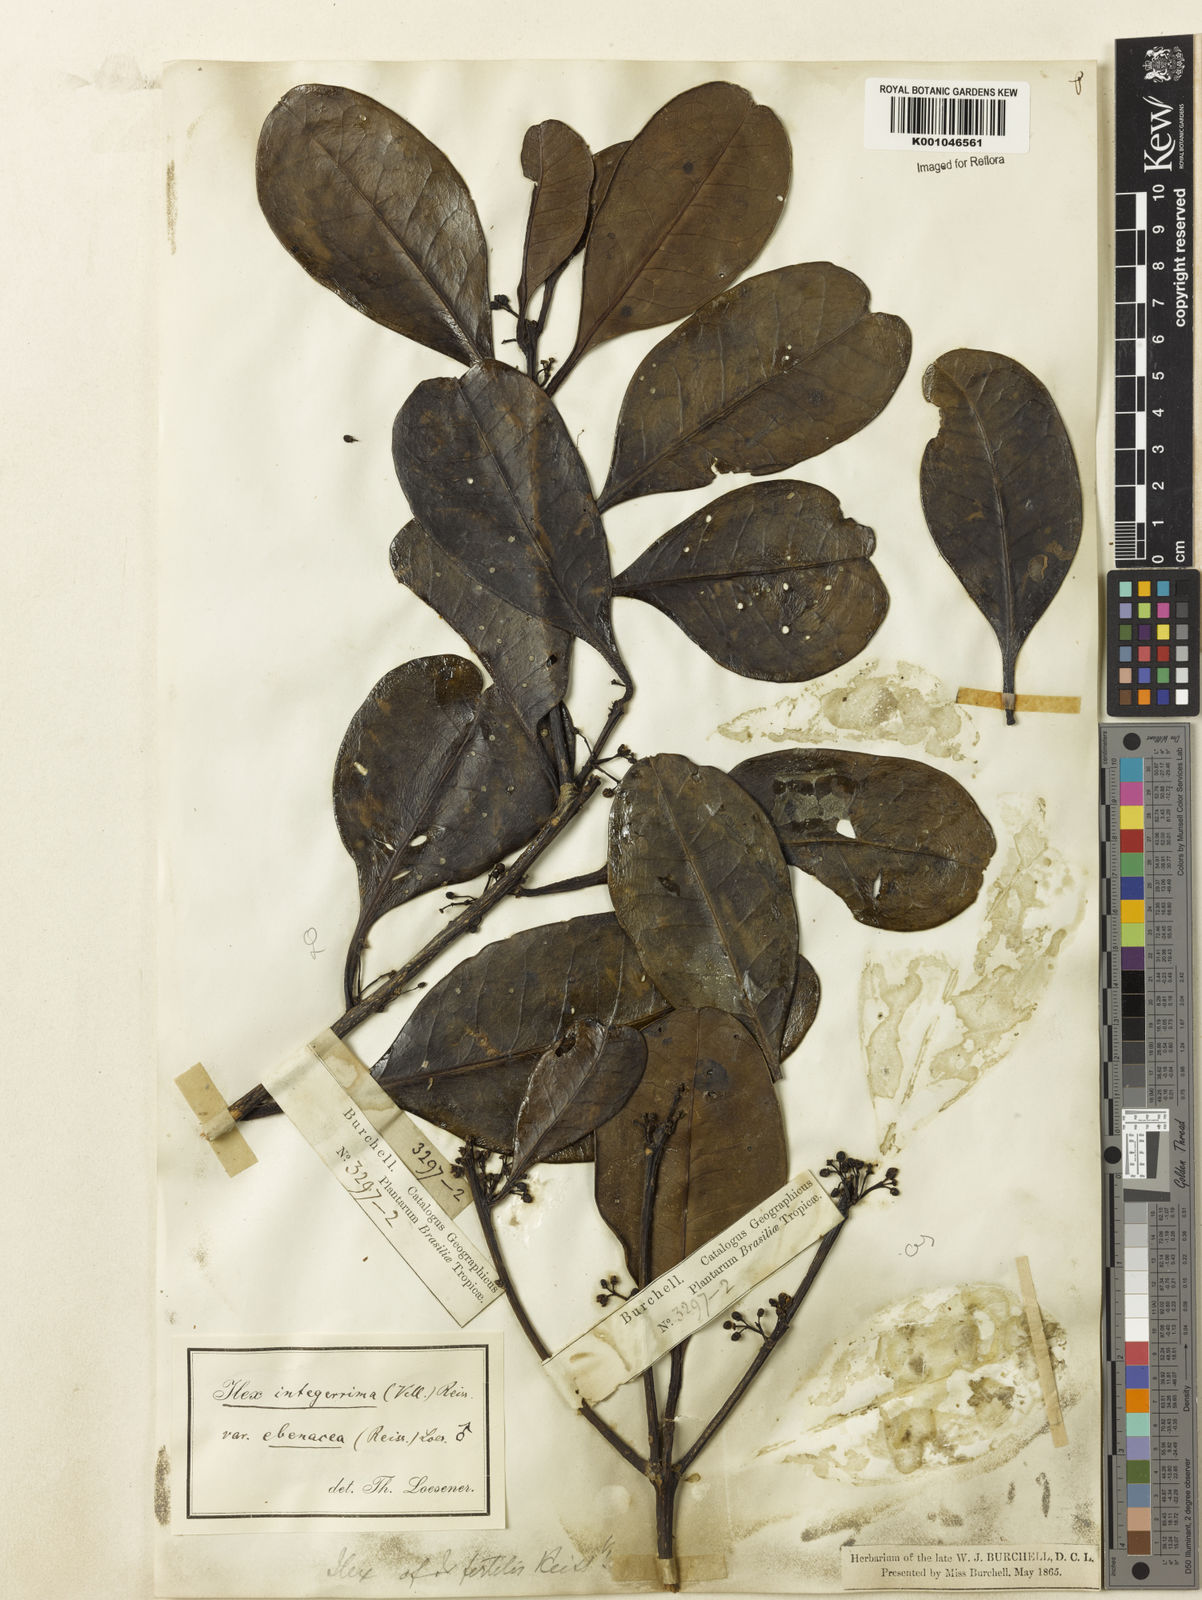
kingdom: Plantae
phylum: Tracheophyta
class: Magnoliopsida
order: Aquifoliales
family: Aquifoliaceae
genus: Ilex
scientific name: Ilex integerrima
